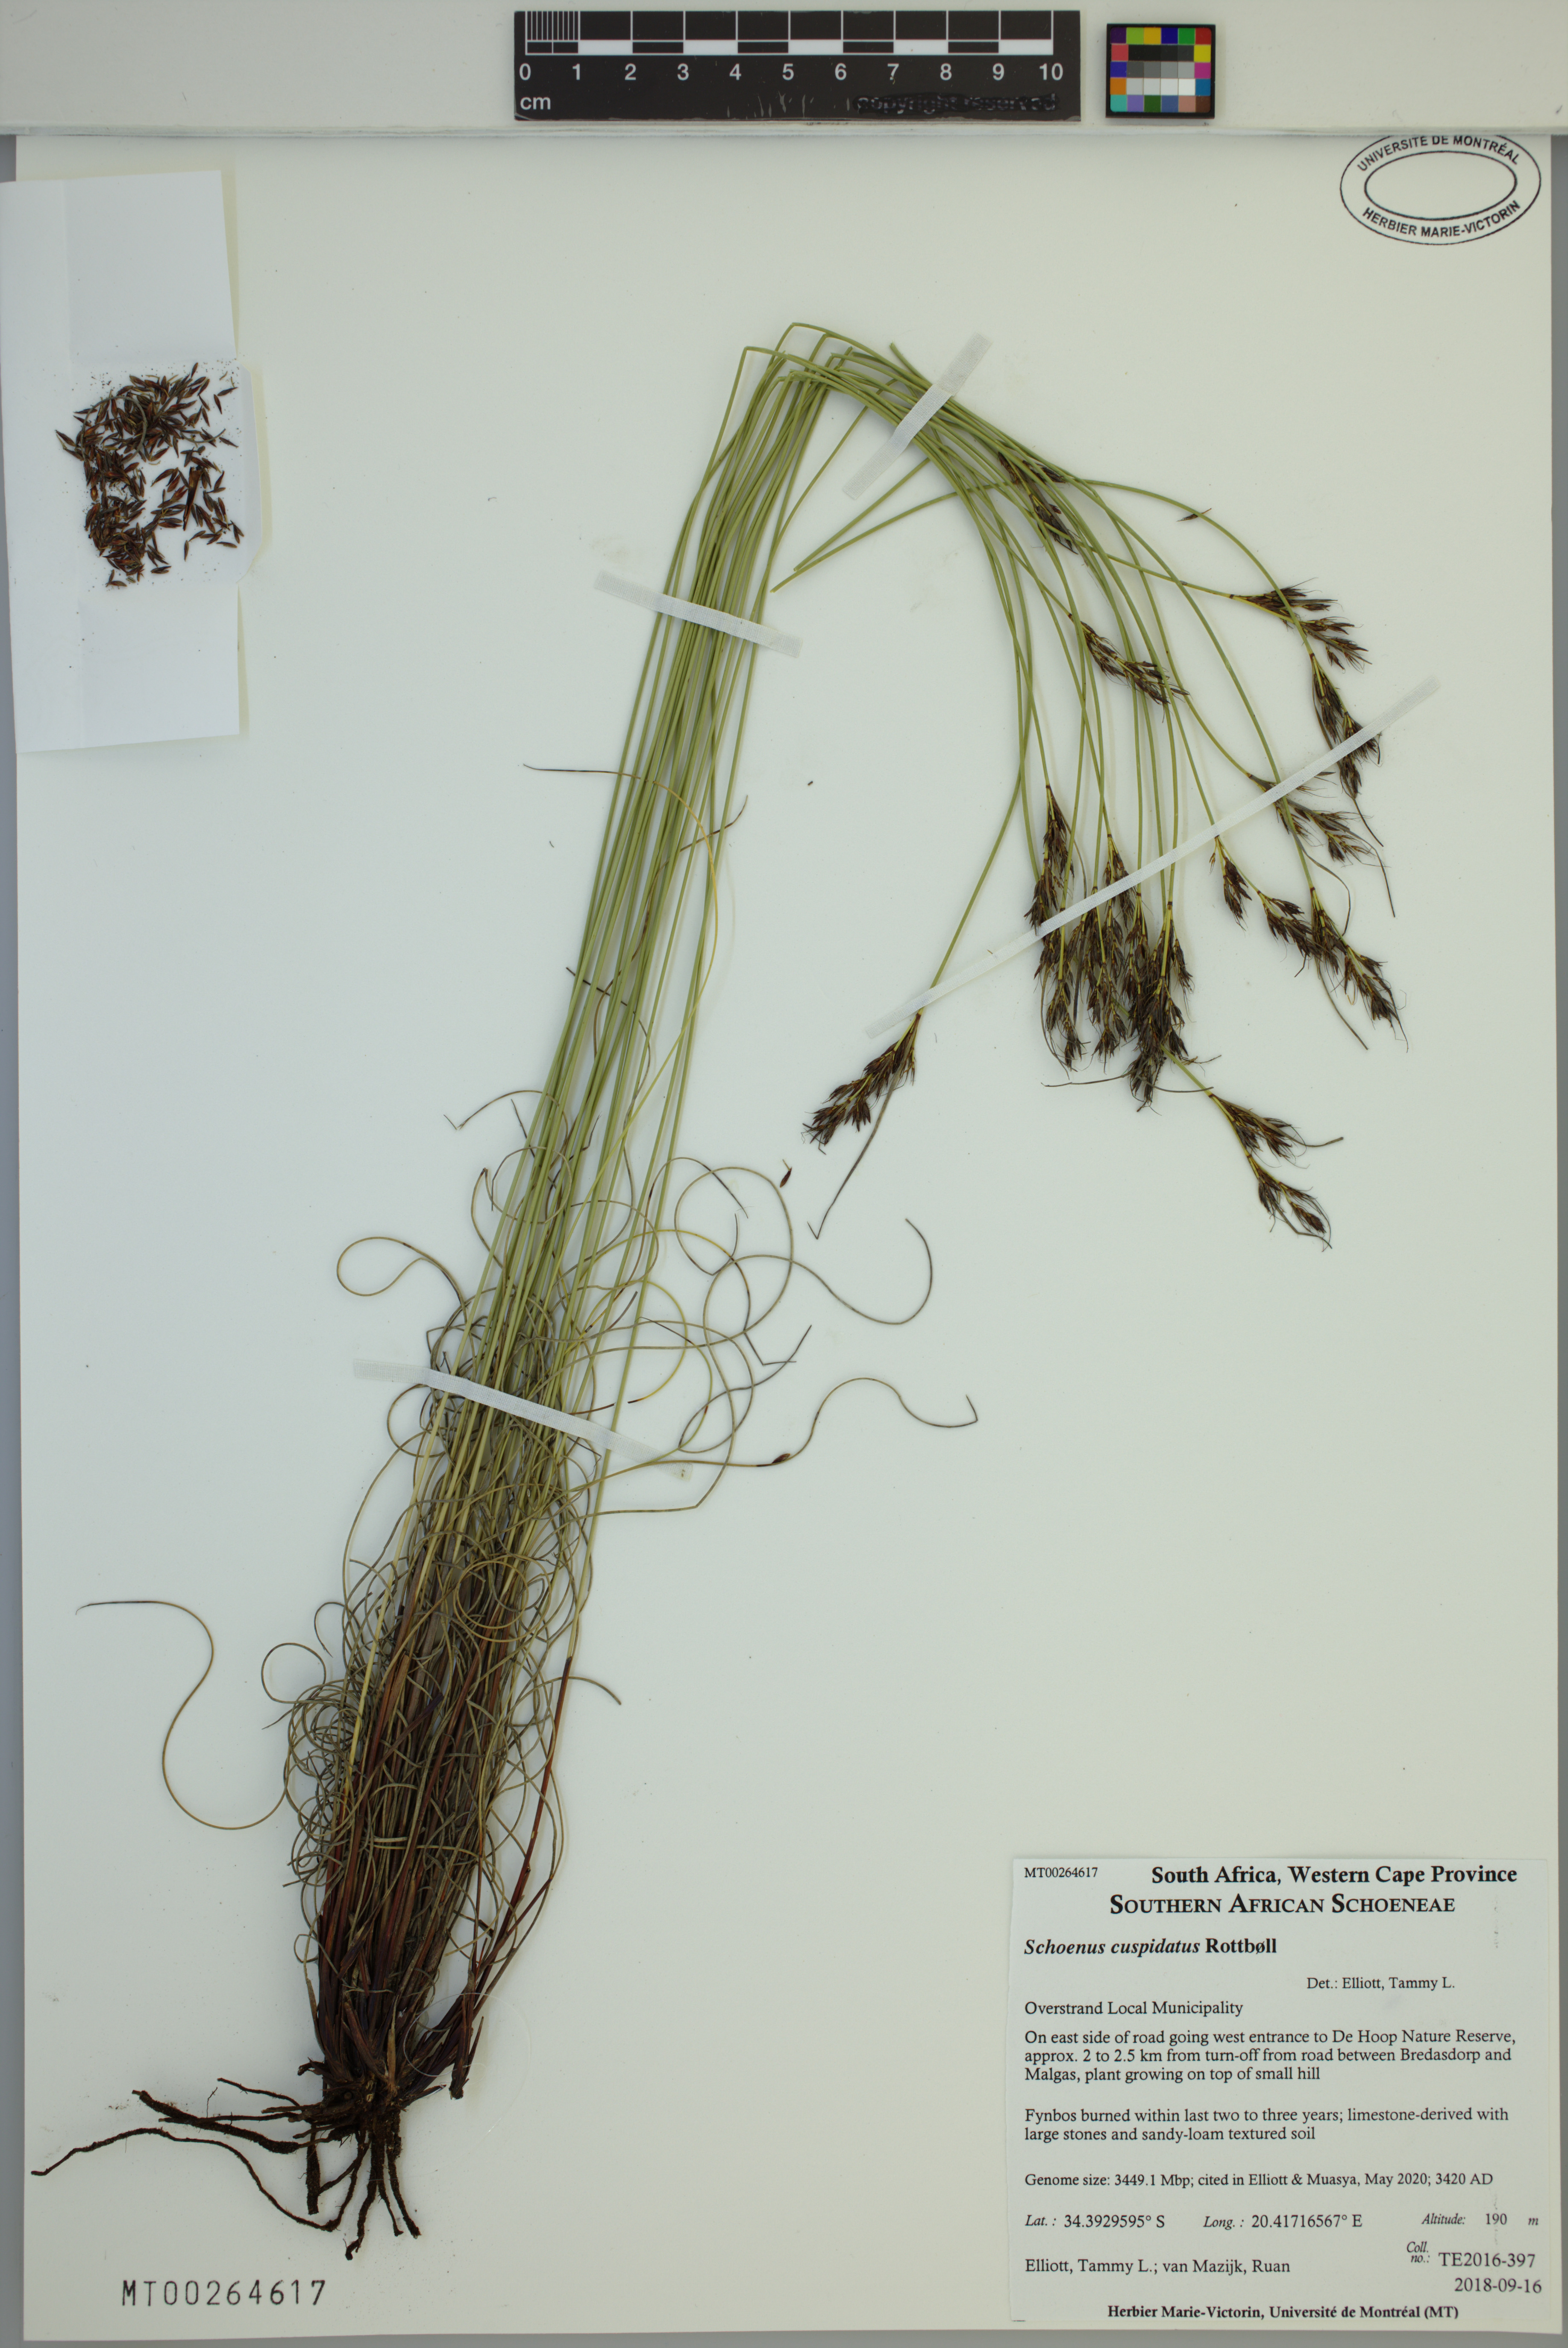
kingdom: Plantae
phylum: Tracheophyta
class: Liliopsida
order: Poales
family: Cyperaceae
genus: Schoenus
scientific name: Schoenus cuspidatus
